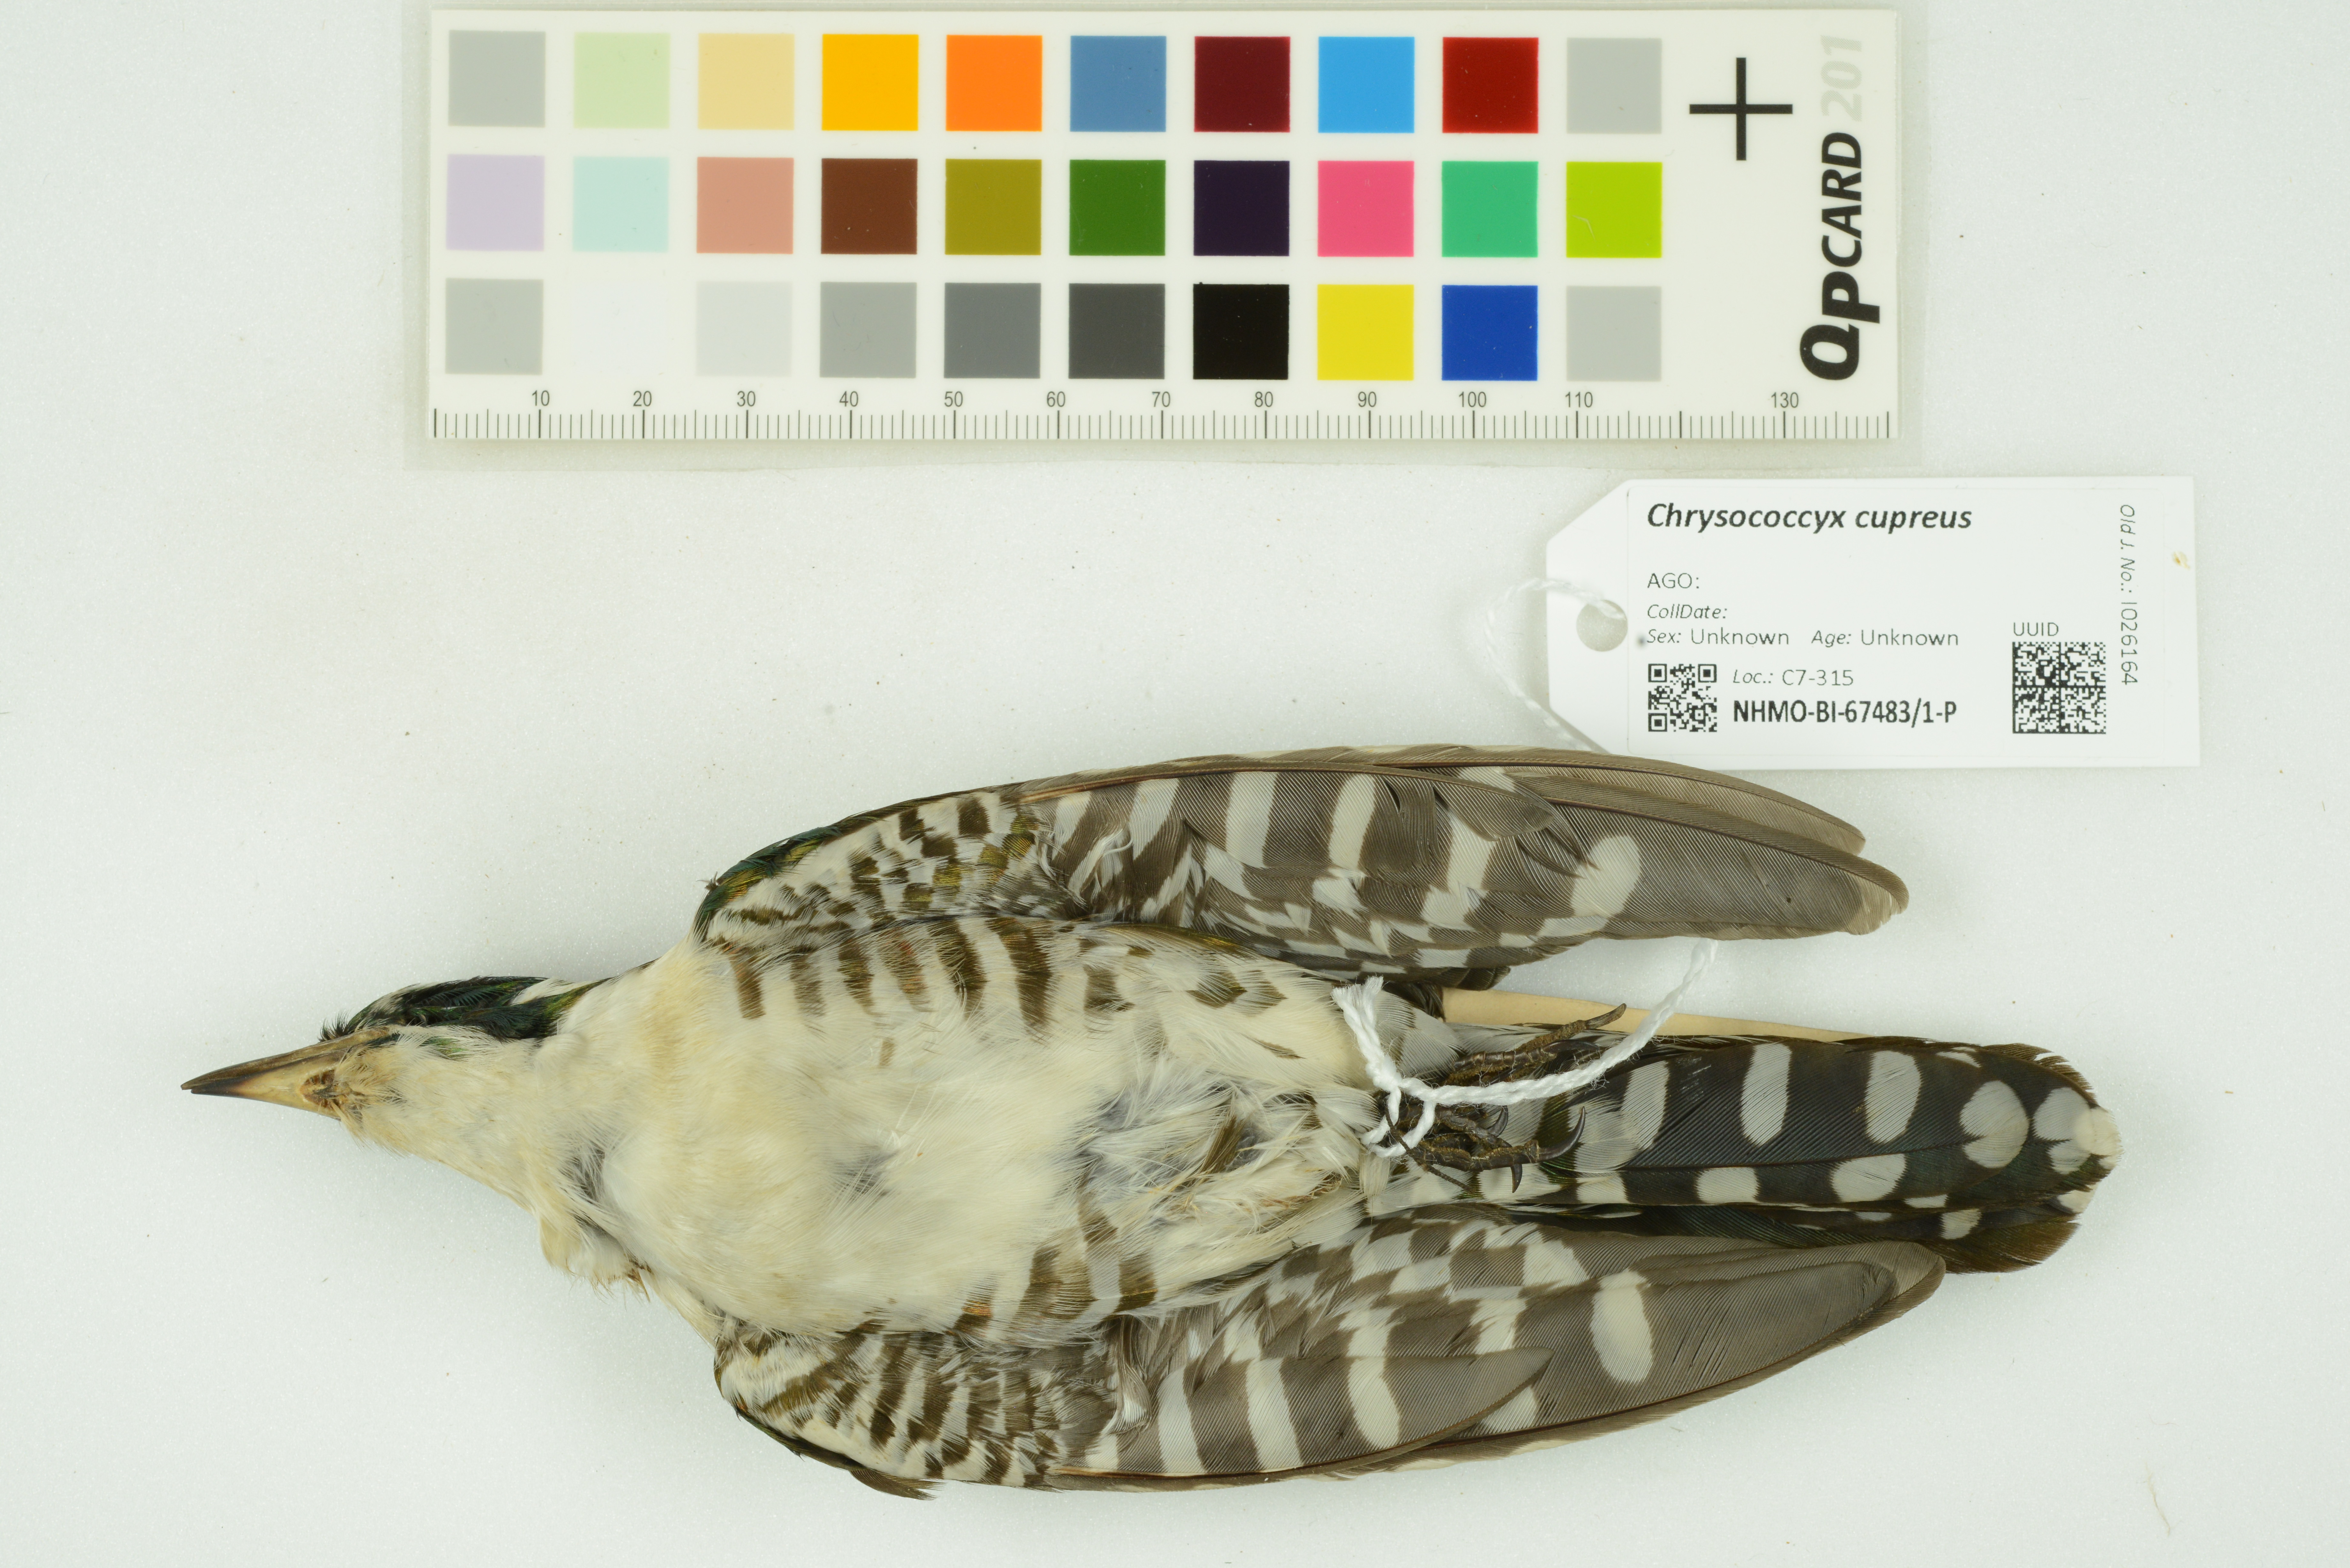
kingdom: Animalia
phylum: Chordata
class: Aves
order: Cuculiformes
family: Cuculidae
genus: Chrysococcyx
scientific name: Chrysococcyx cupreus
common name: African emerald cuckoo
